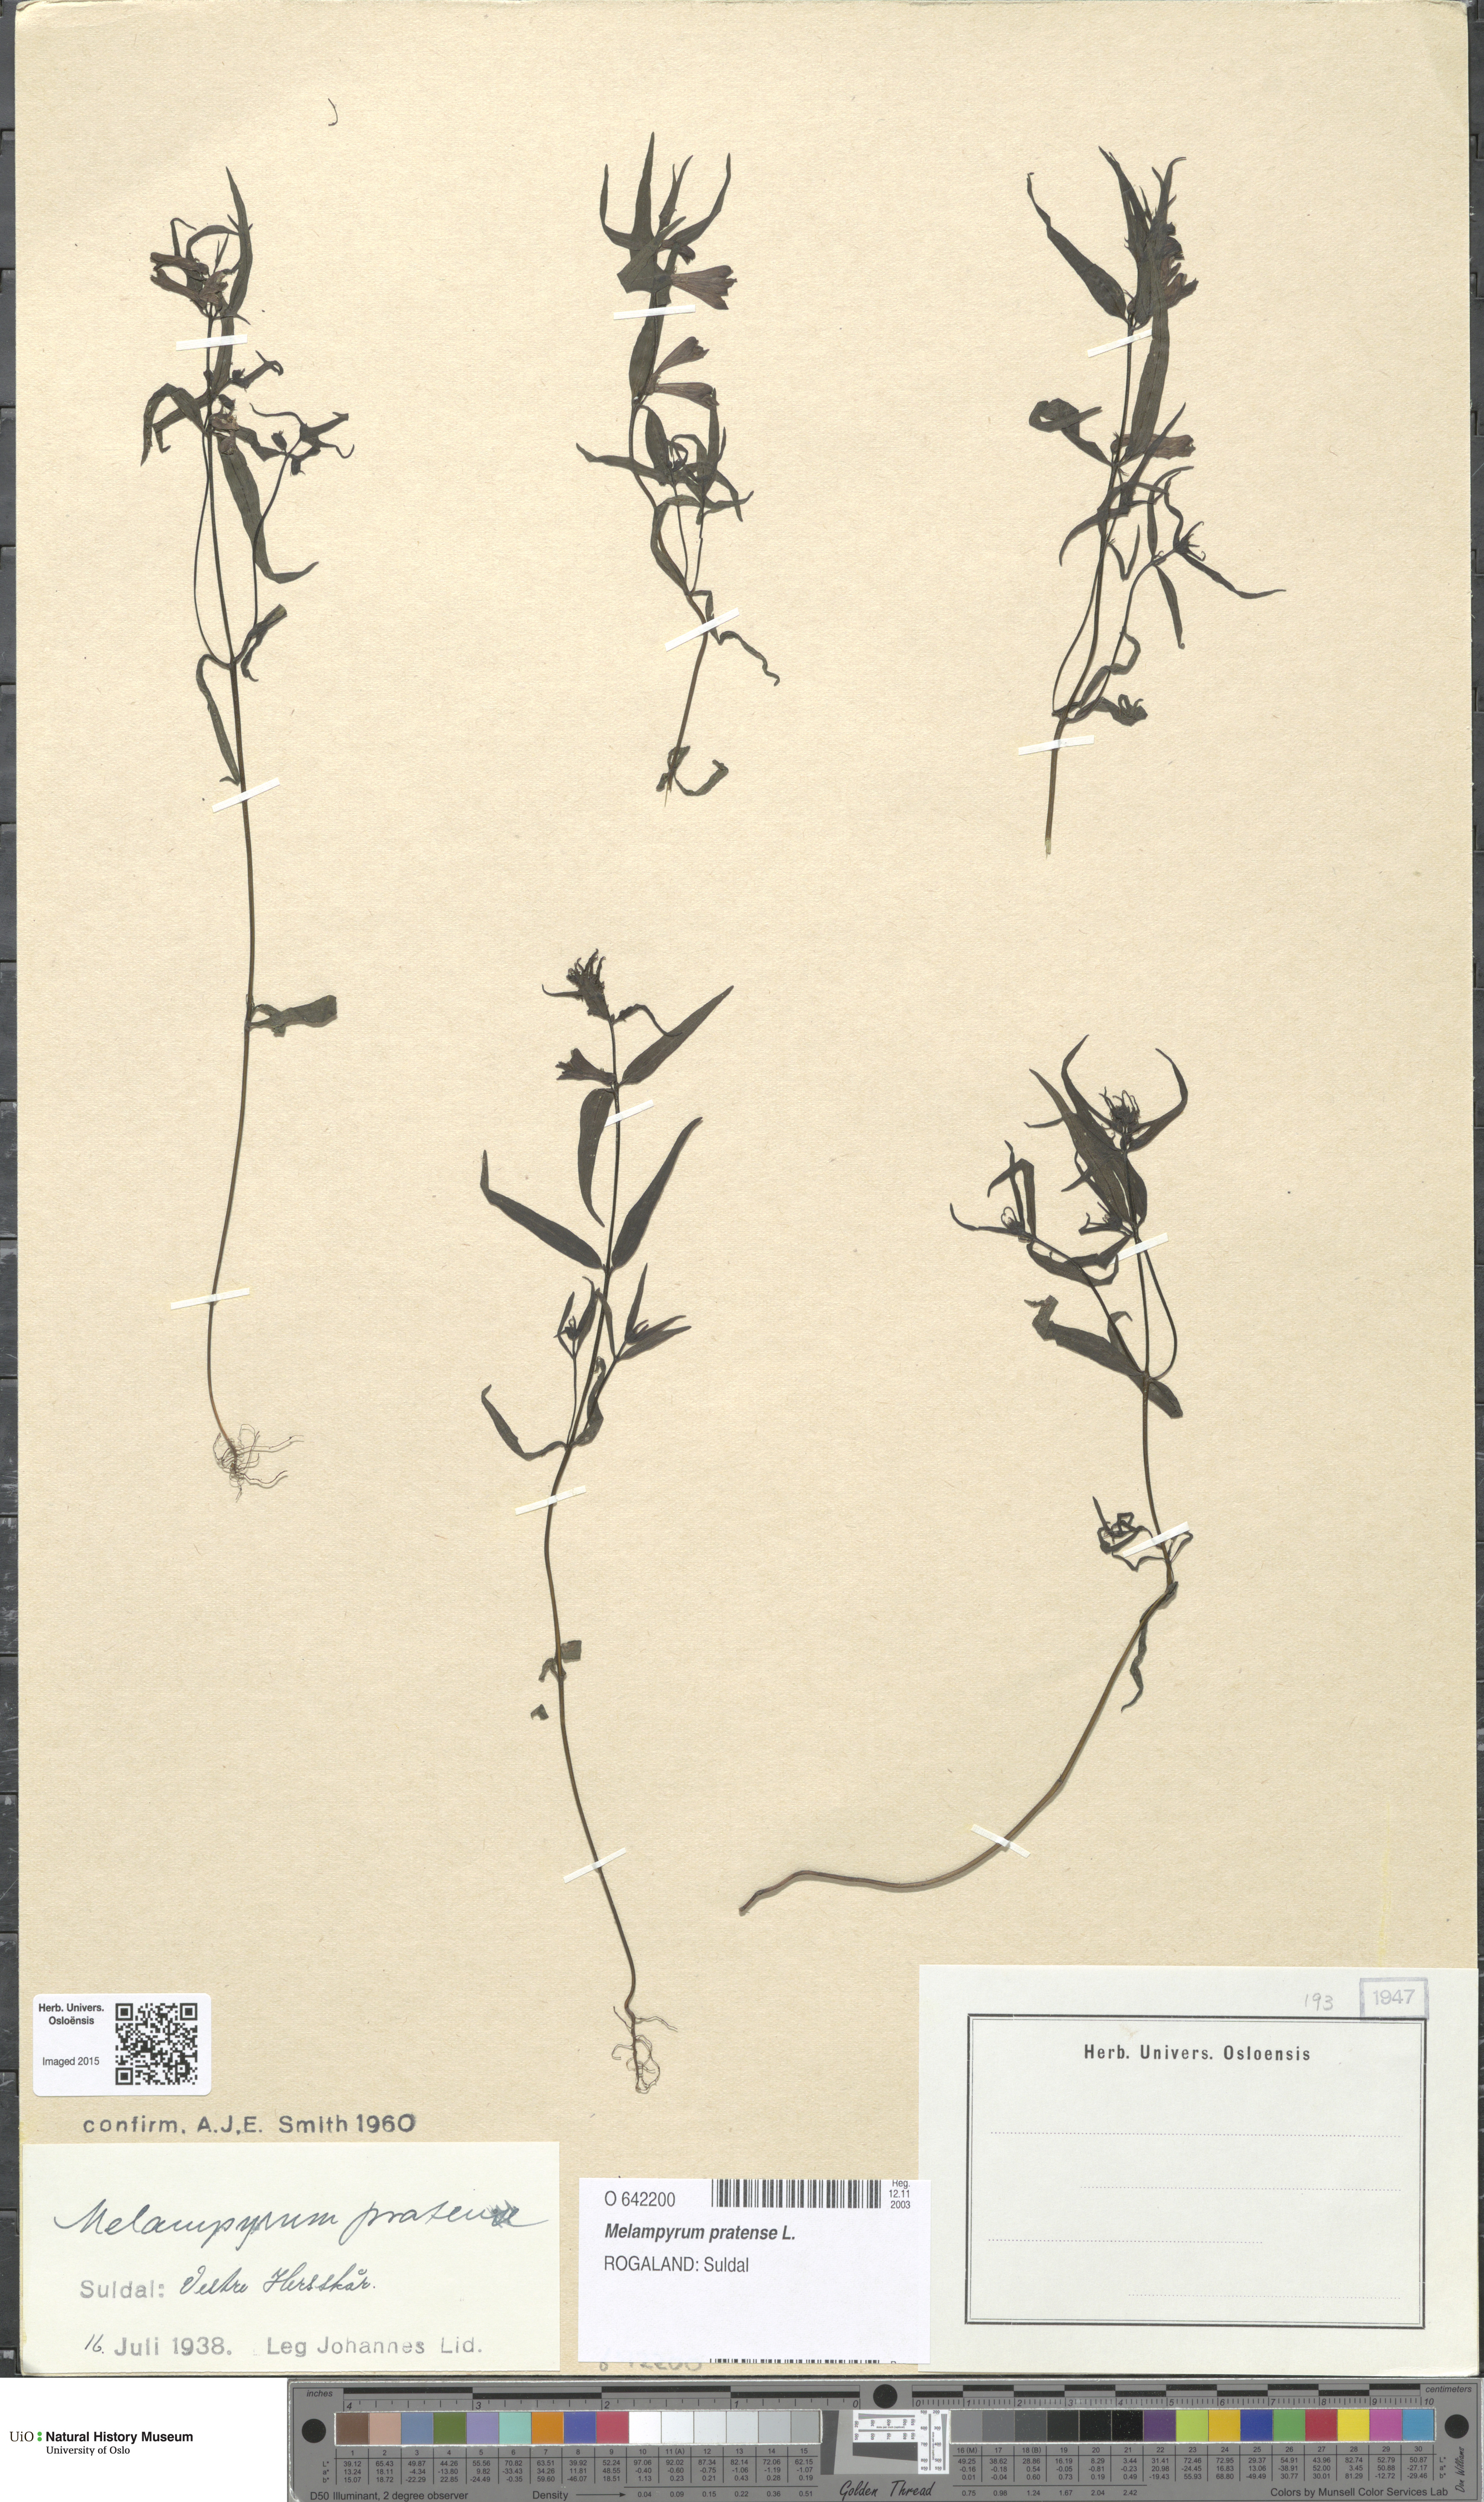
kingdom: Plantae
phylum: Tracheophyta
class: Magnoliopsida
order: Lamiales
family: Orobanchaceae
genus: Melampyrum
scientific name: Melampyrum pratense
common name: Common cow-wheat
